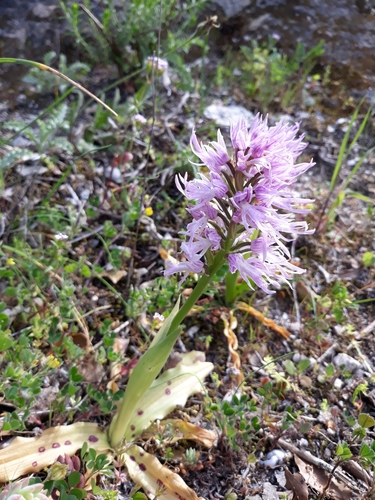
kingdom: Plantae
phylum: Tracheophyta
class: Liliopsida
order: Asparagales
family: Orchidaceae
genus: Orchis
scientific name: Orchis italica
